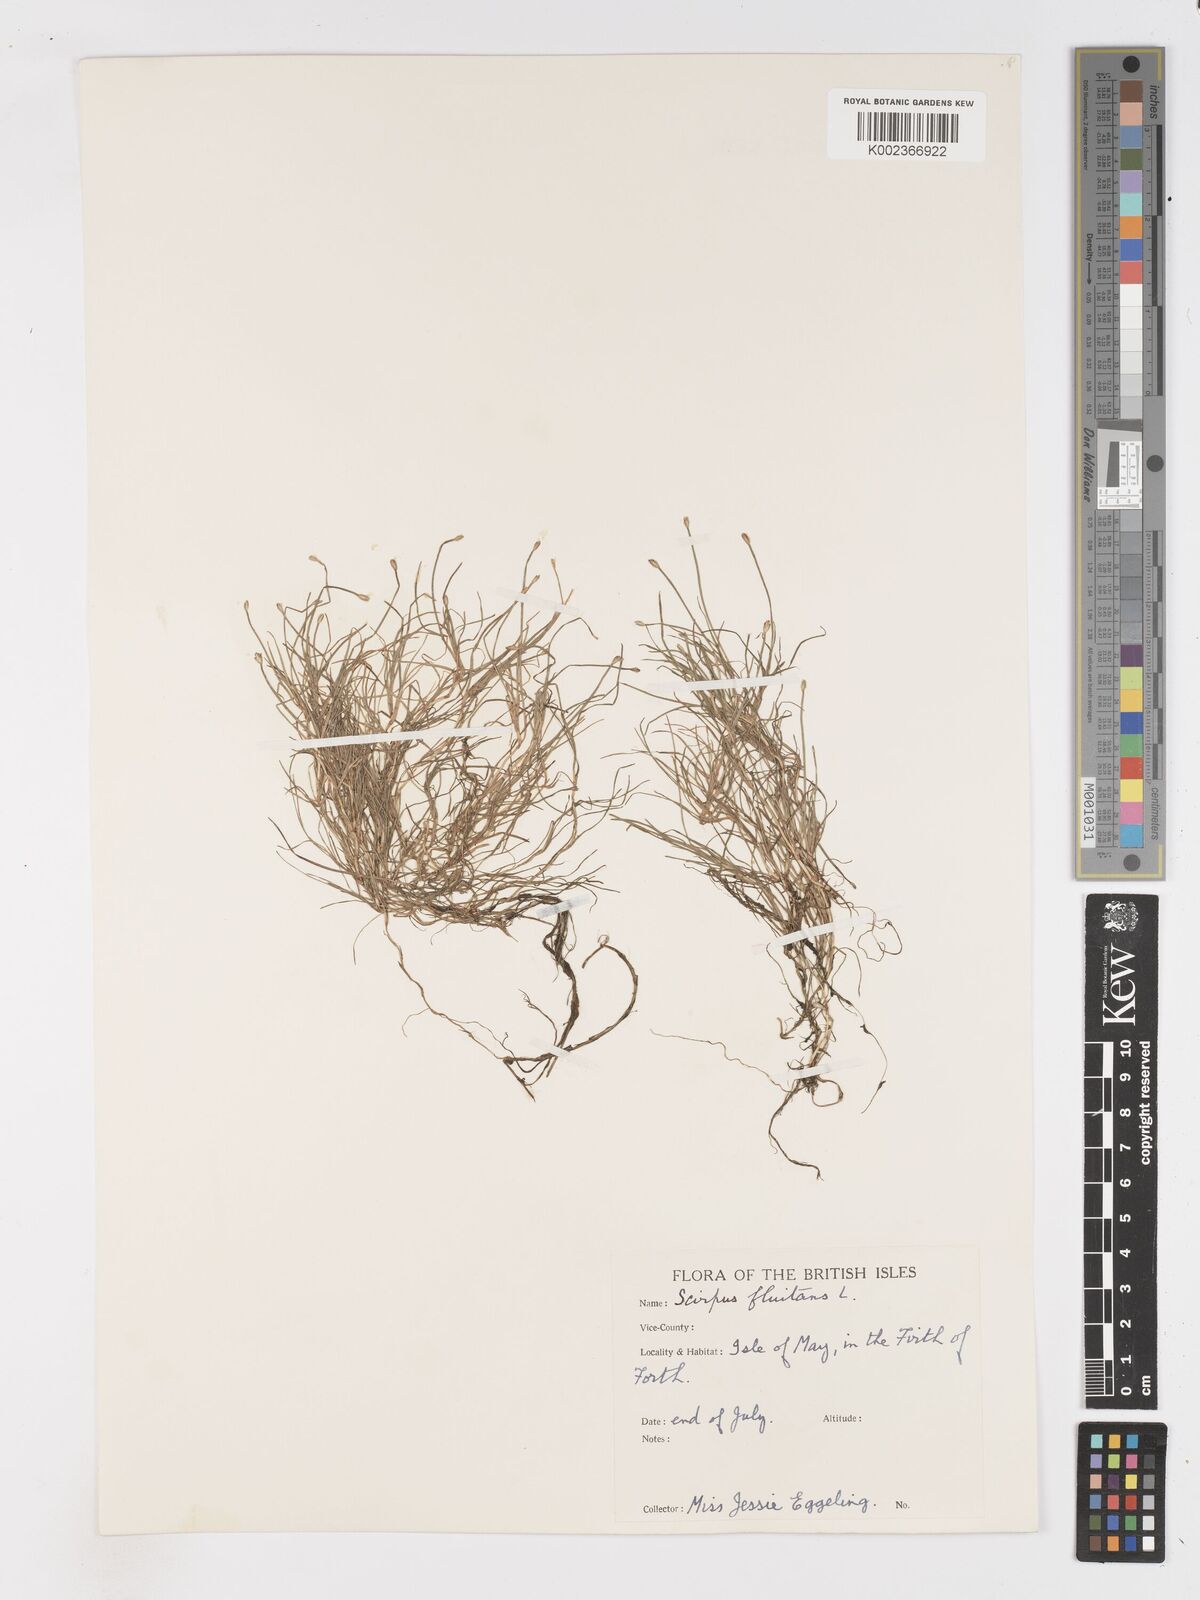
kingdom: Plantae
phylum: Tracheophyta
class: Liliopsida
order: Poales
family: Cyperaceae
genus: Isolepis
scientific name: Isolepis fluitans
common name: Floating club-rush
